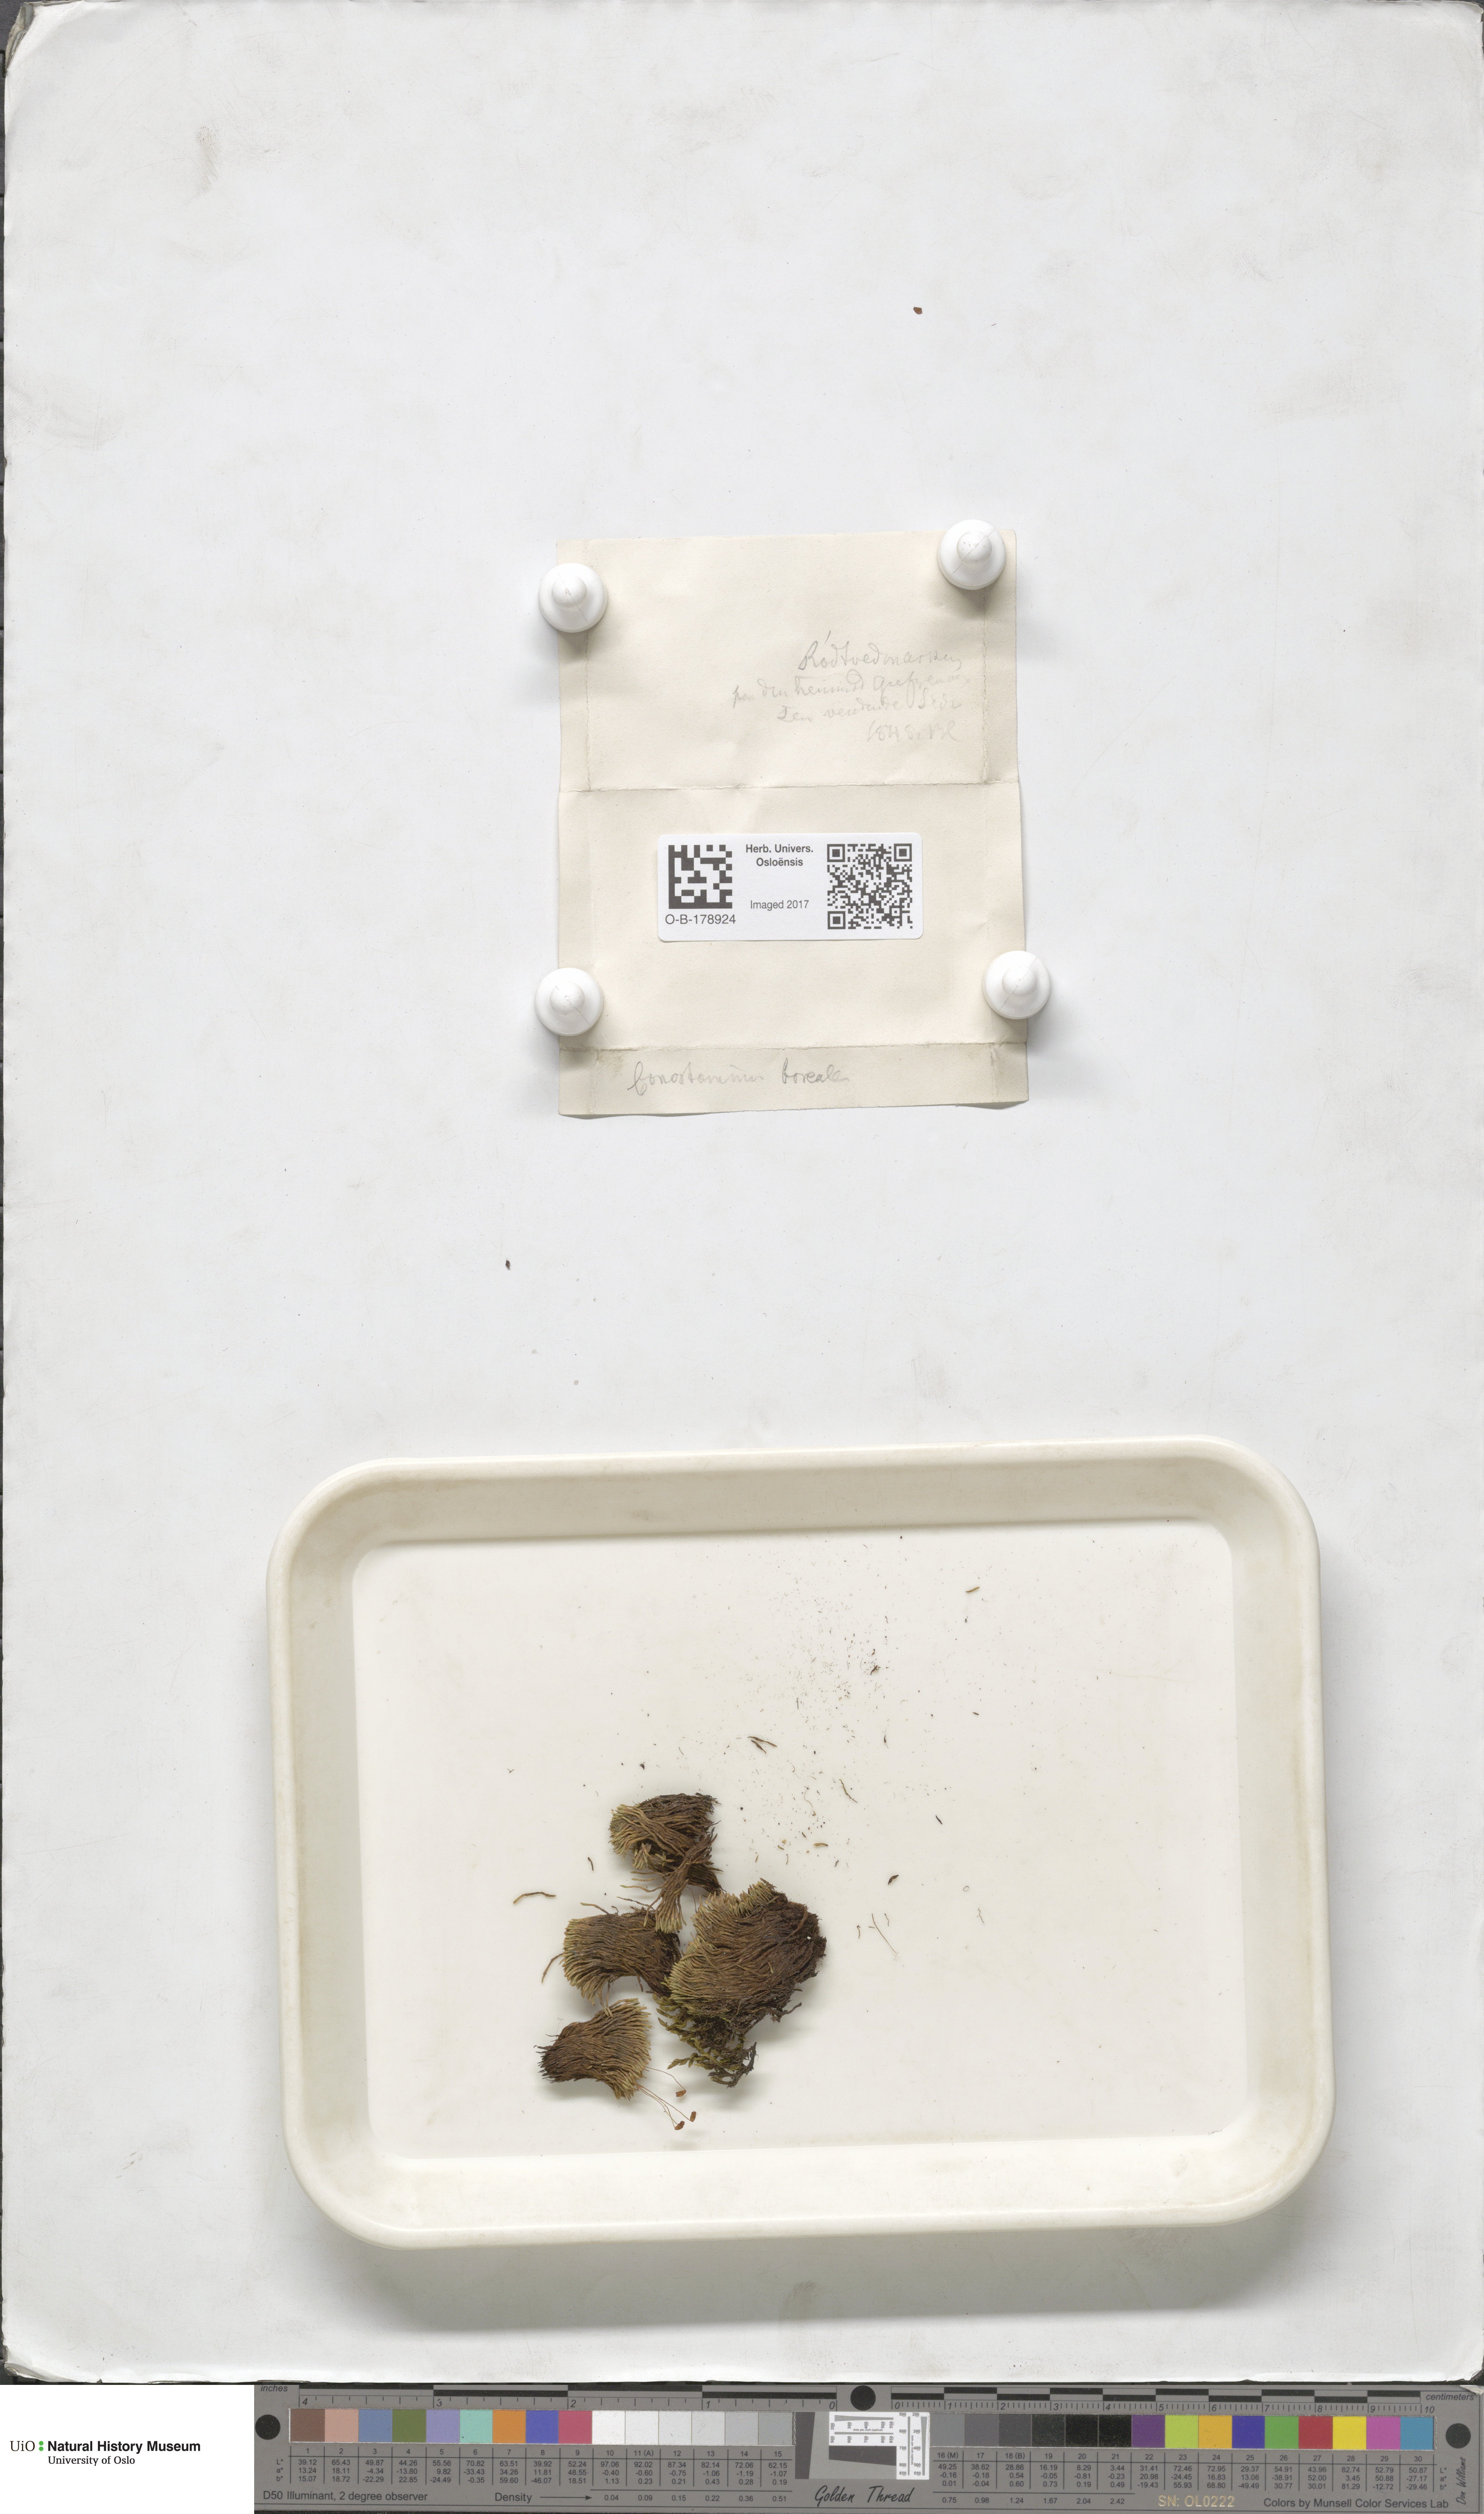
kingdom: Plantae
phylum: Bryophyta
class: Bryopsida
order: Bartramiales
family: Bartramiaceae
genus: Conostomum
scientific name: Conostomum tetragonum
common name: Helmet moss
